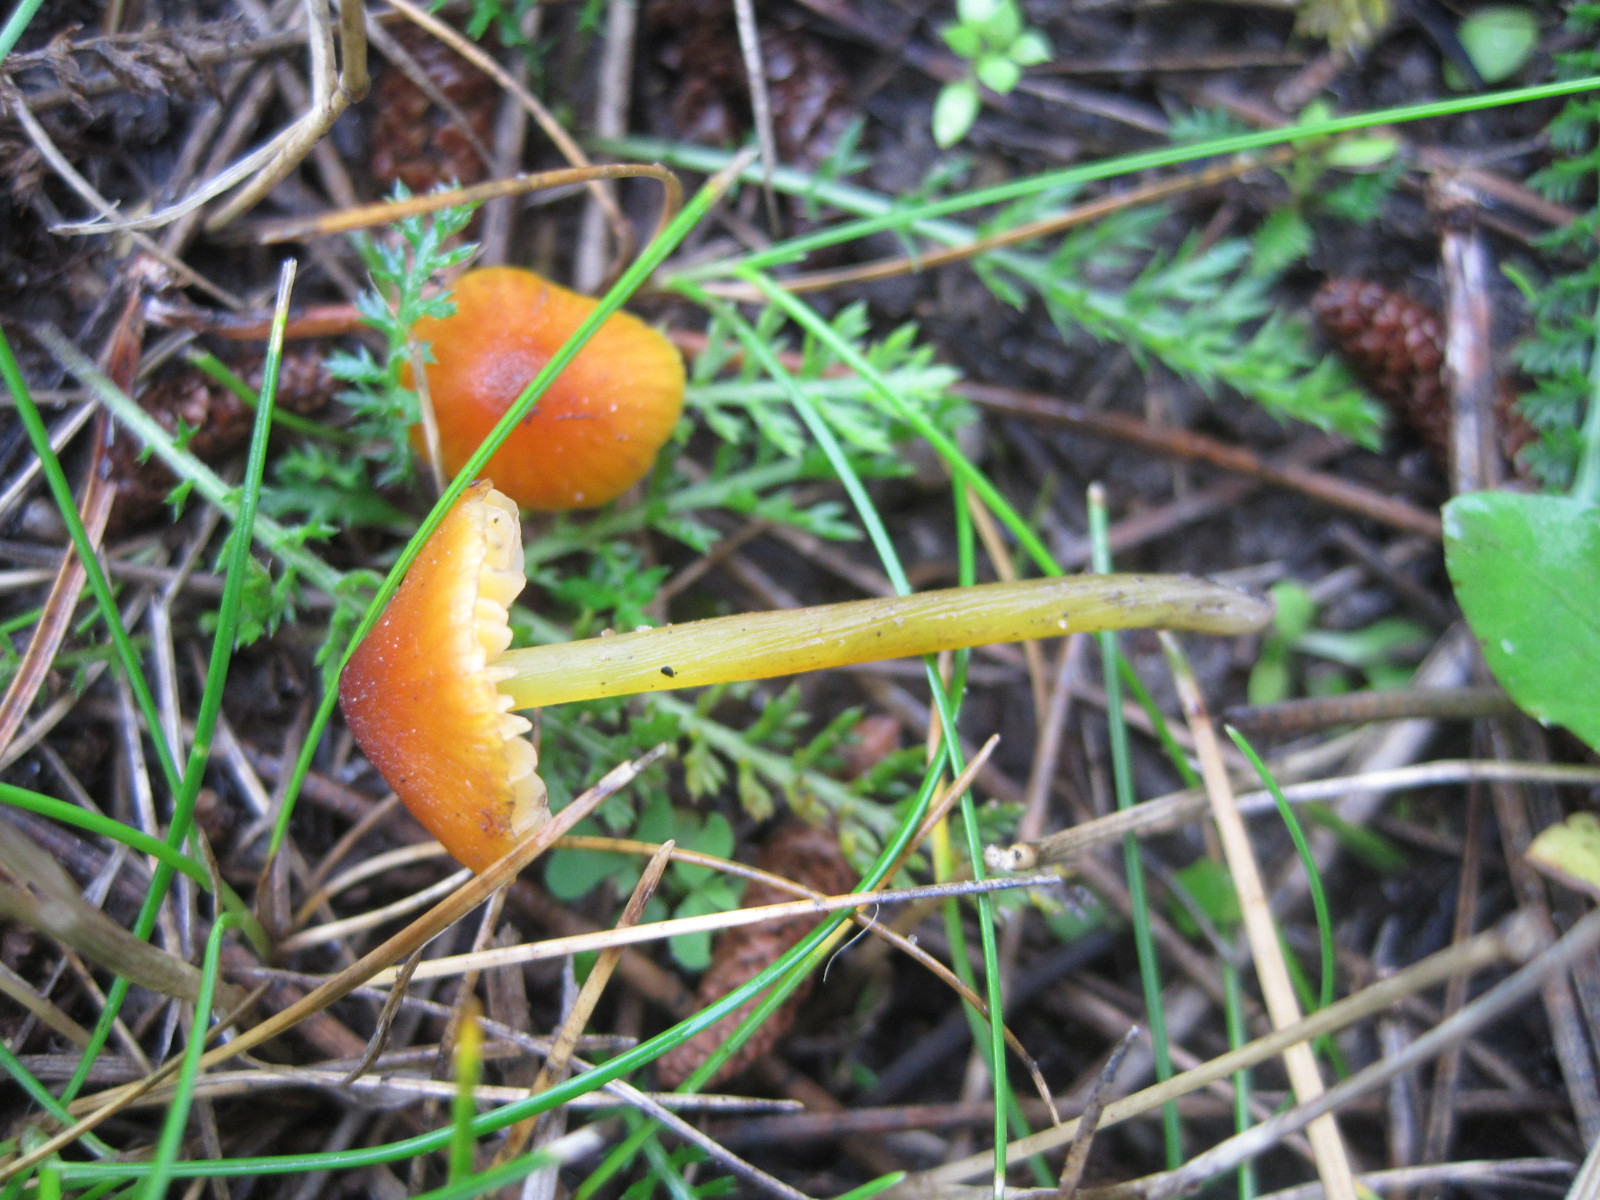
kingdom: Fungi
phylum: Basidiomycota
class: Agaricomycetes
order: Agaricales
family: Hygrophoraceae
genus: Hygrocybe
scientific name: Hygrocybe conica
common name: kegle-vokshat
